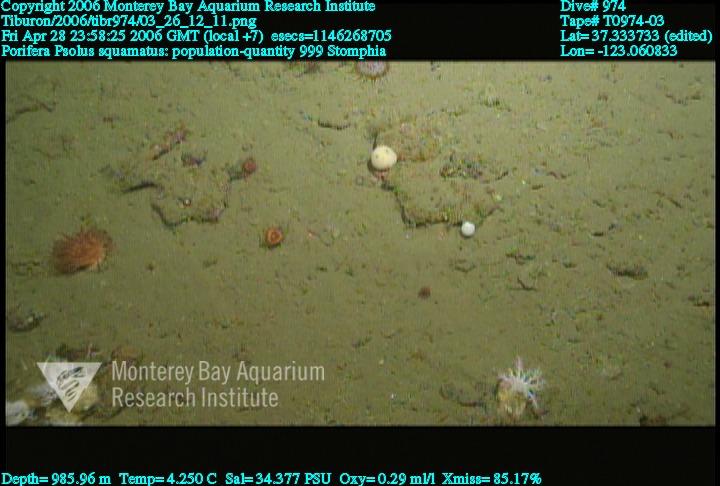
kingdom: Animalia
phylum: Porifera
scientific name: Porifera
